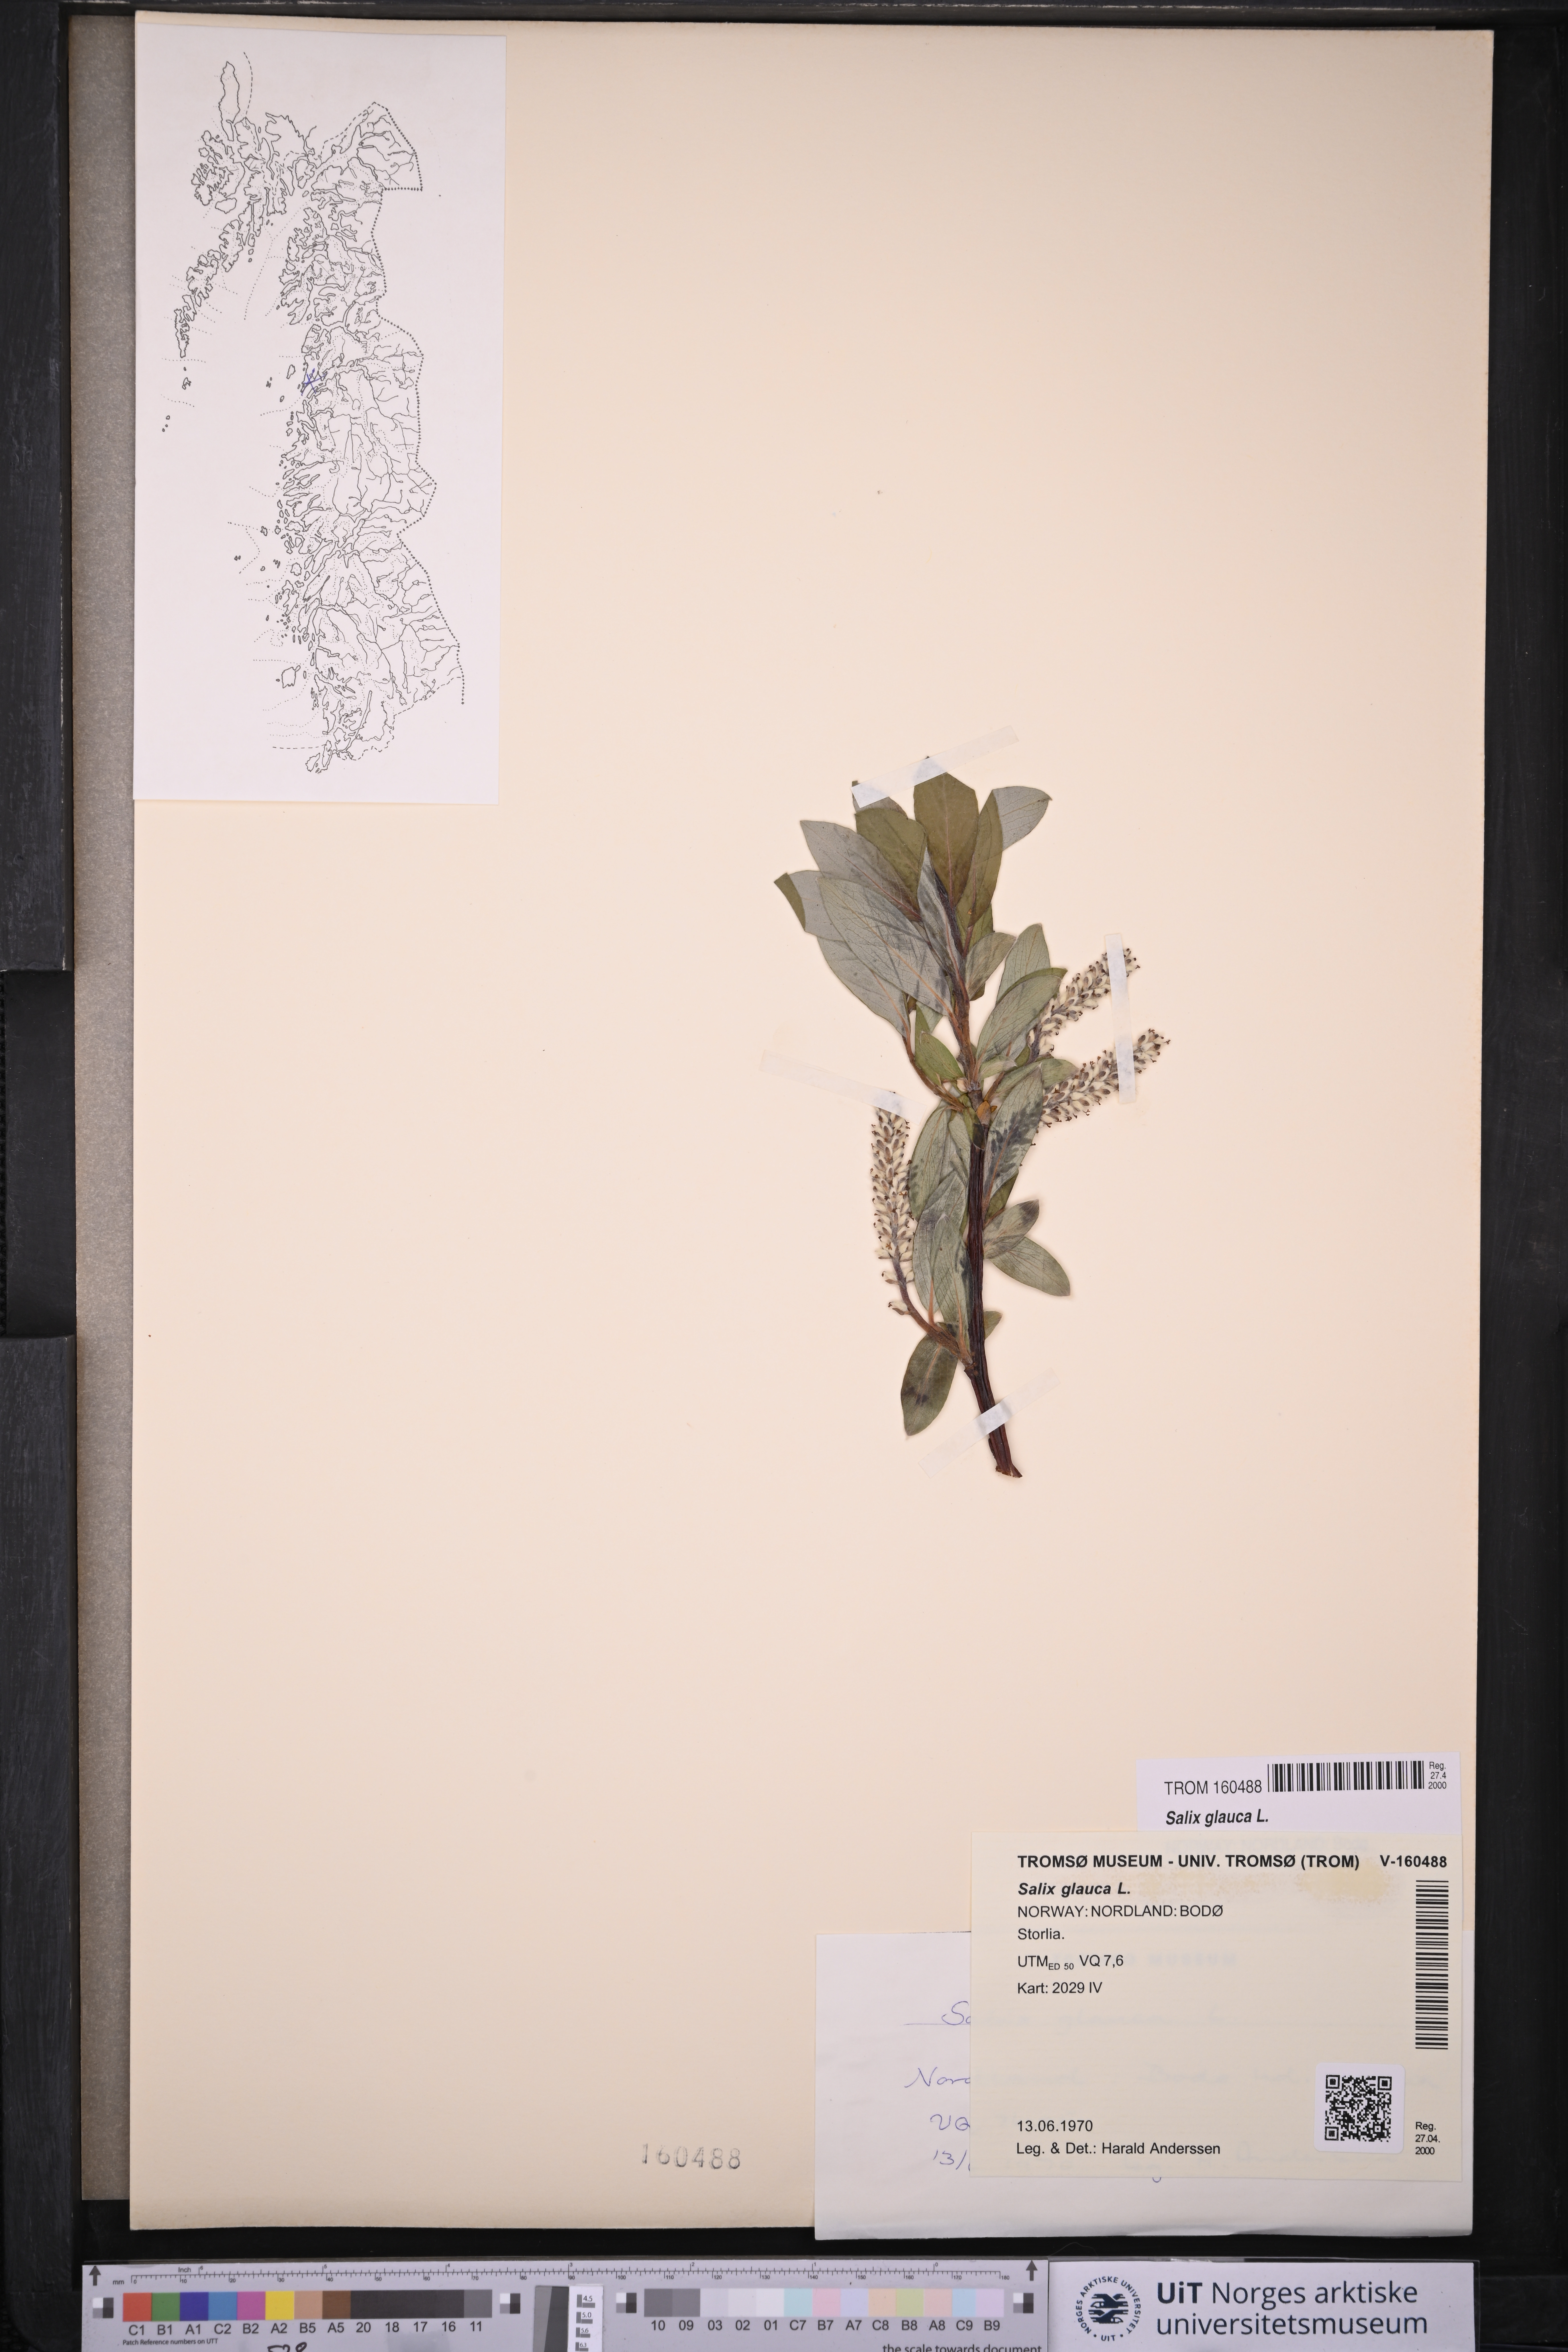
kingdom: Plantae
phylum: Tracheophyta
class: Magnoliopsida
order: Malpighiales
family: Salicaceae
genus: Salix
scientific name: Salix glauca
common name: Glaucous willow
